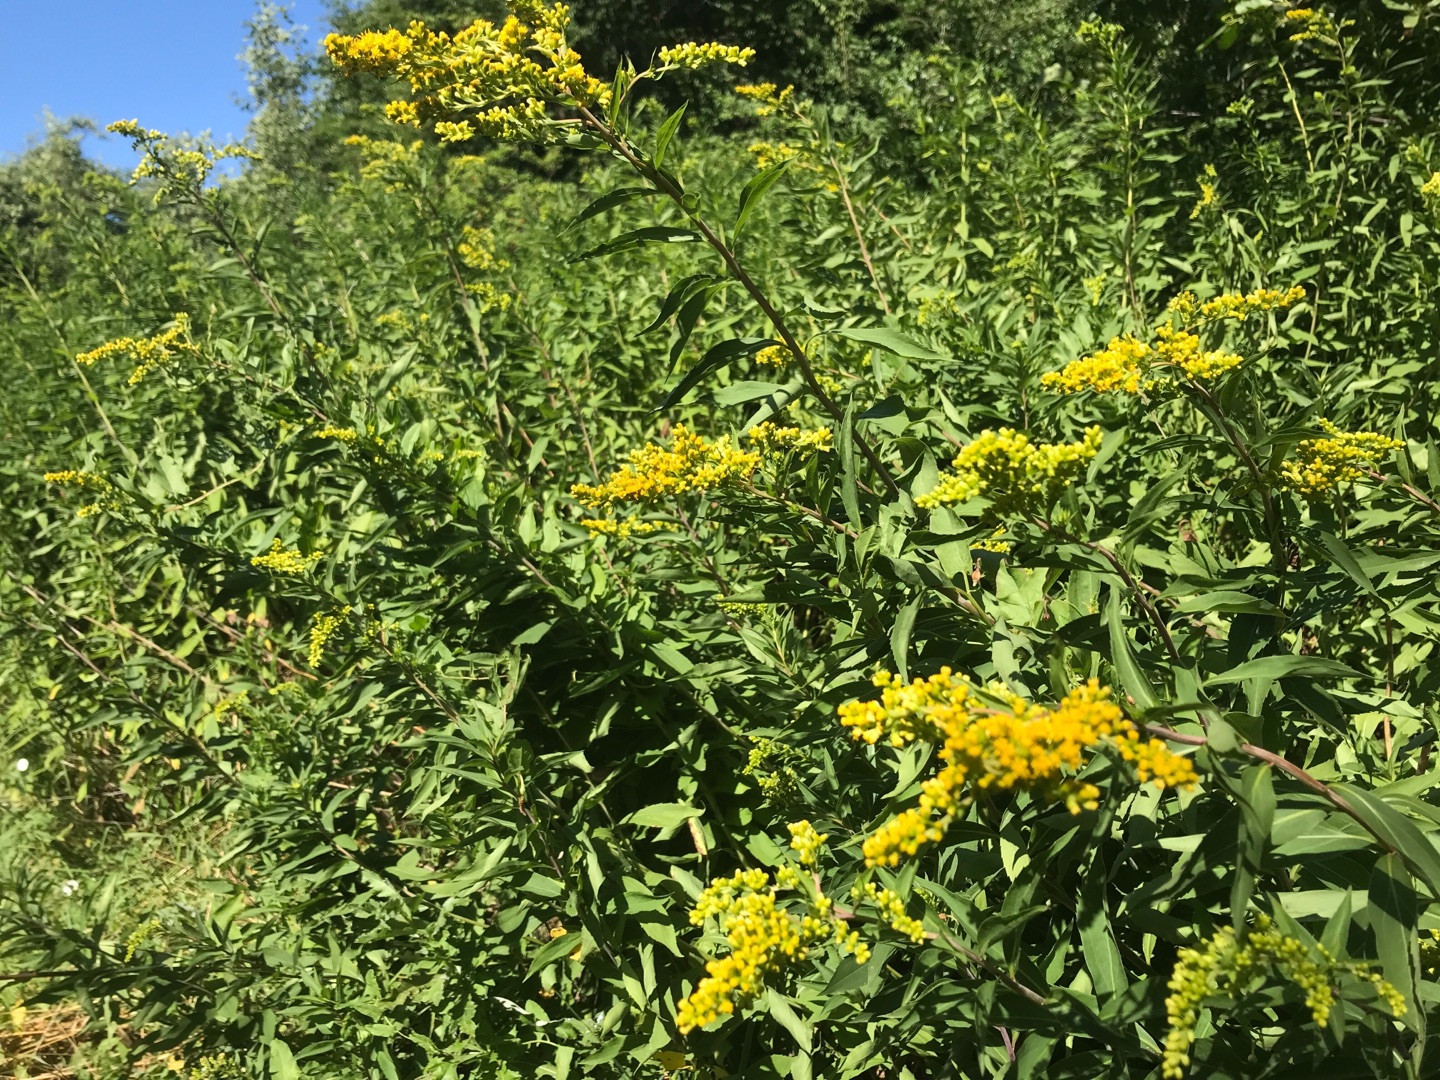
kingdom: Plantae
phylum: Tracheophyta
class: Magnoliopsida
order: Asterales
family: Asteraceae
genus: Solidago
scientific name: Solidago gigantea
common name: Sildig gyldenris
